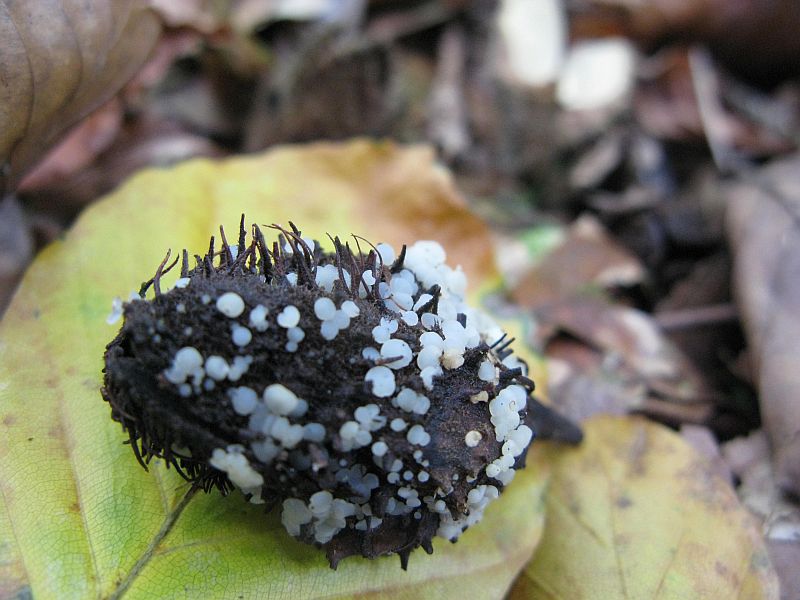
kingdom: Fungi
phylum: Ascomycota
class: Leotiomycetes
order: Helotiales
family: Helotiaceae
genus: Hymenoscyphus
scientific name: Hymenoscyphus fagineus
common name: vellugtende stilkskive
